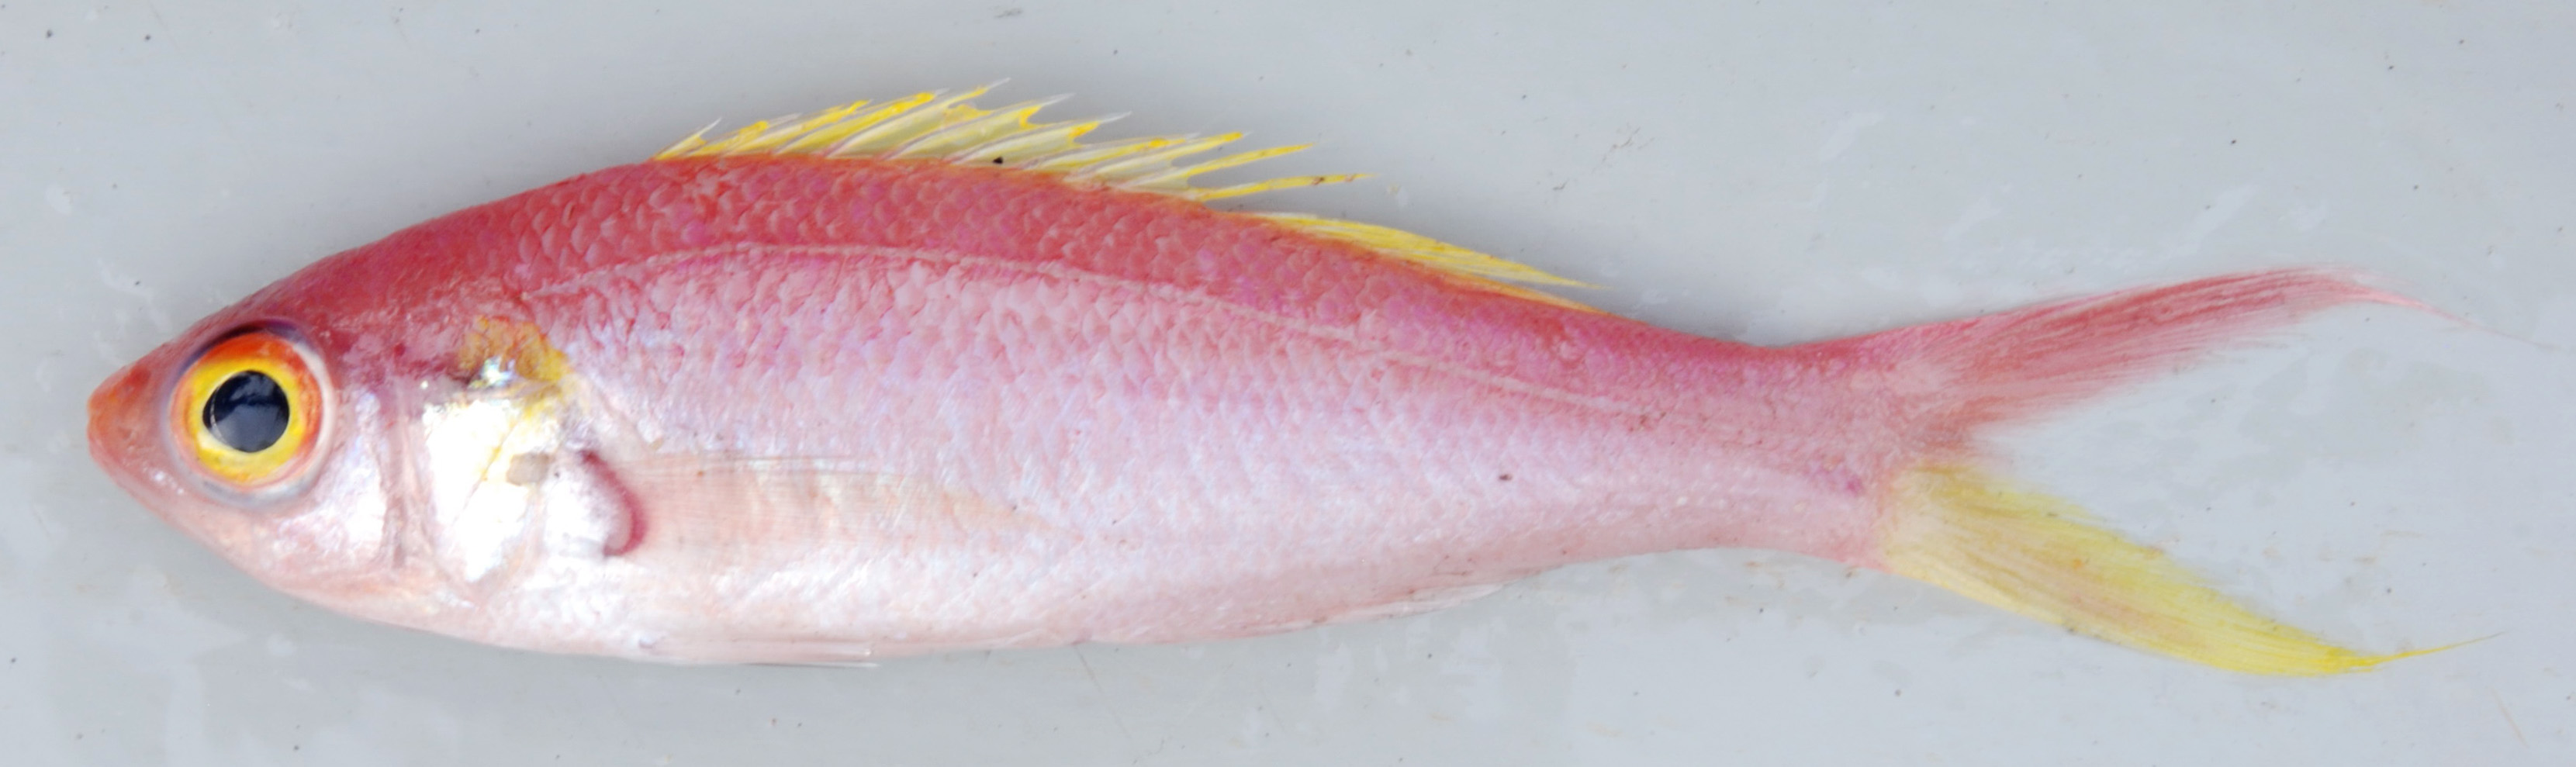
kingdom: Animalia
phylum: Chordata
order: Perciformes
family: Symphysanodontidae
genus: Symphysanodon
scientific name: Symphysanodon
